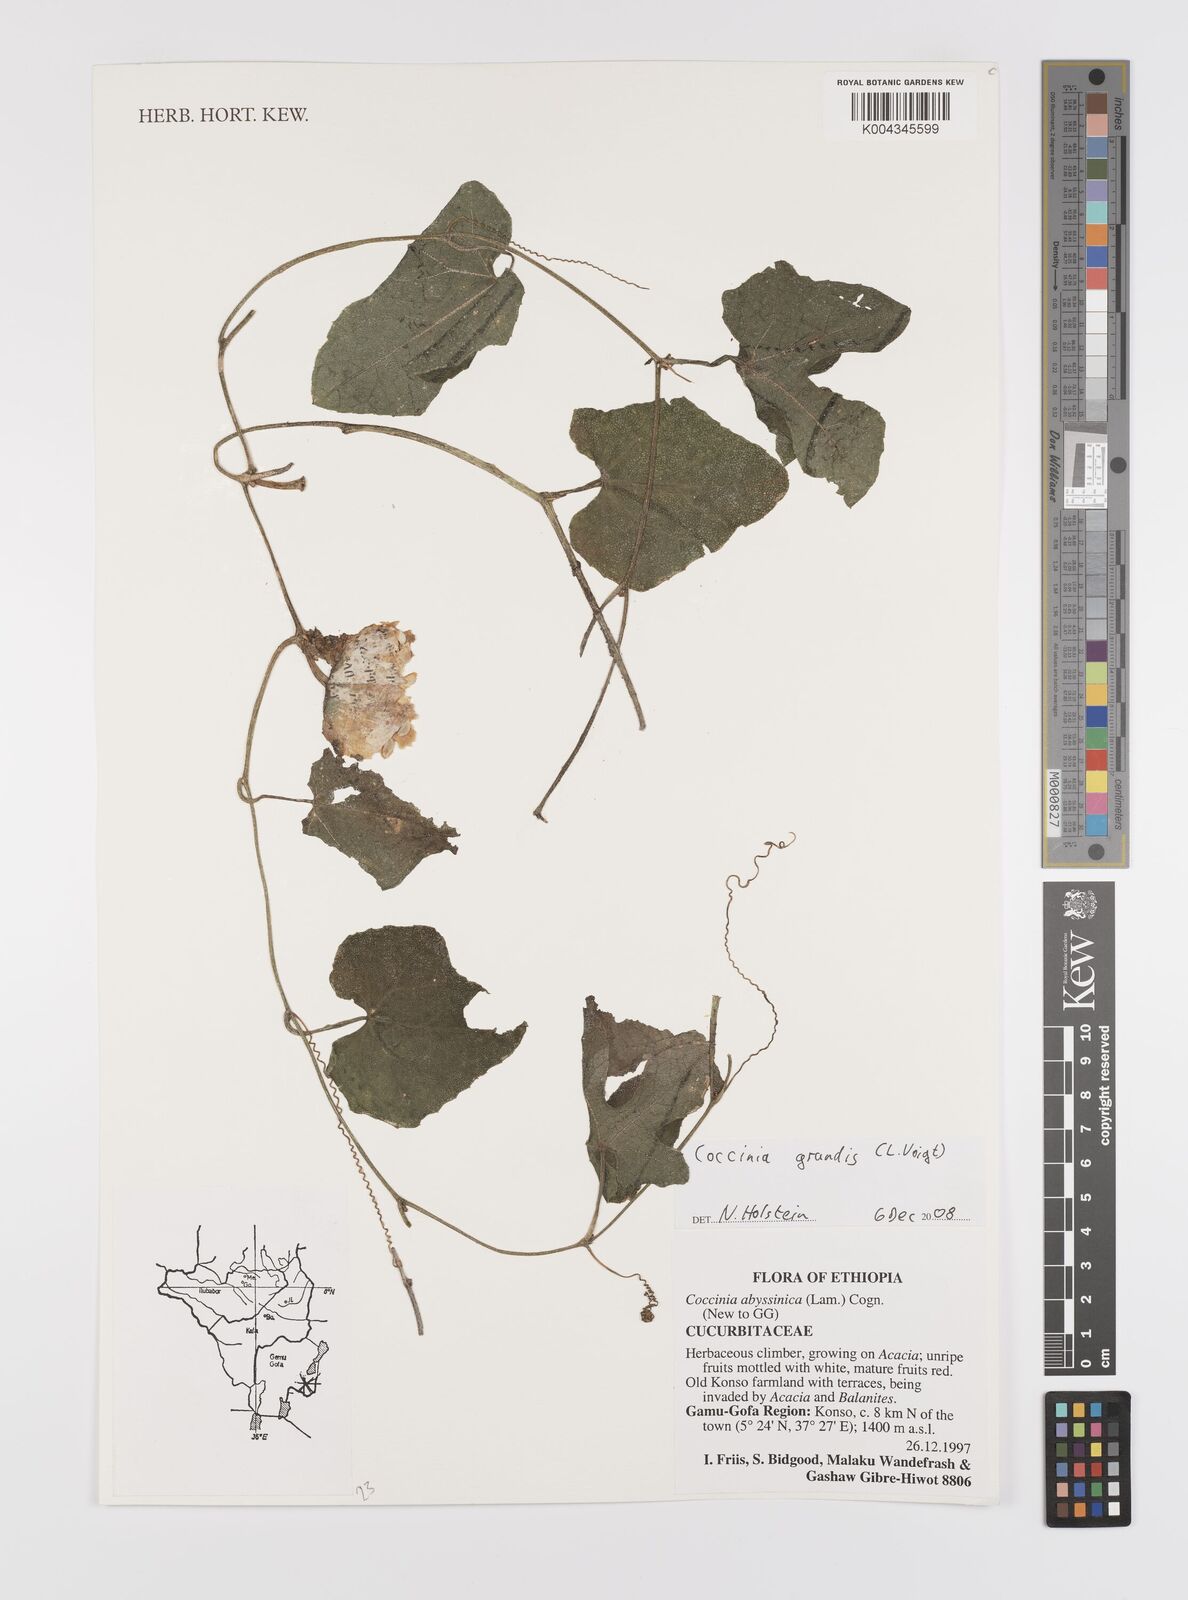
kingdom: Plantae
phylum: Tracheophyta
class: Magnoliopsida
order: Cucurbitales
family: Cucurbitaceae
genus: Coccinia
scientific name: Coccinia grandis
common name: Ivy gourd
